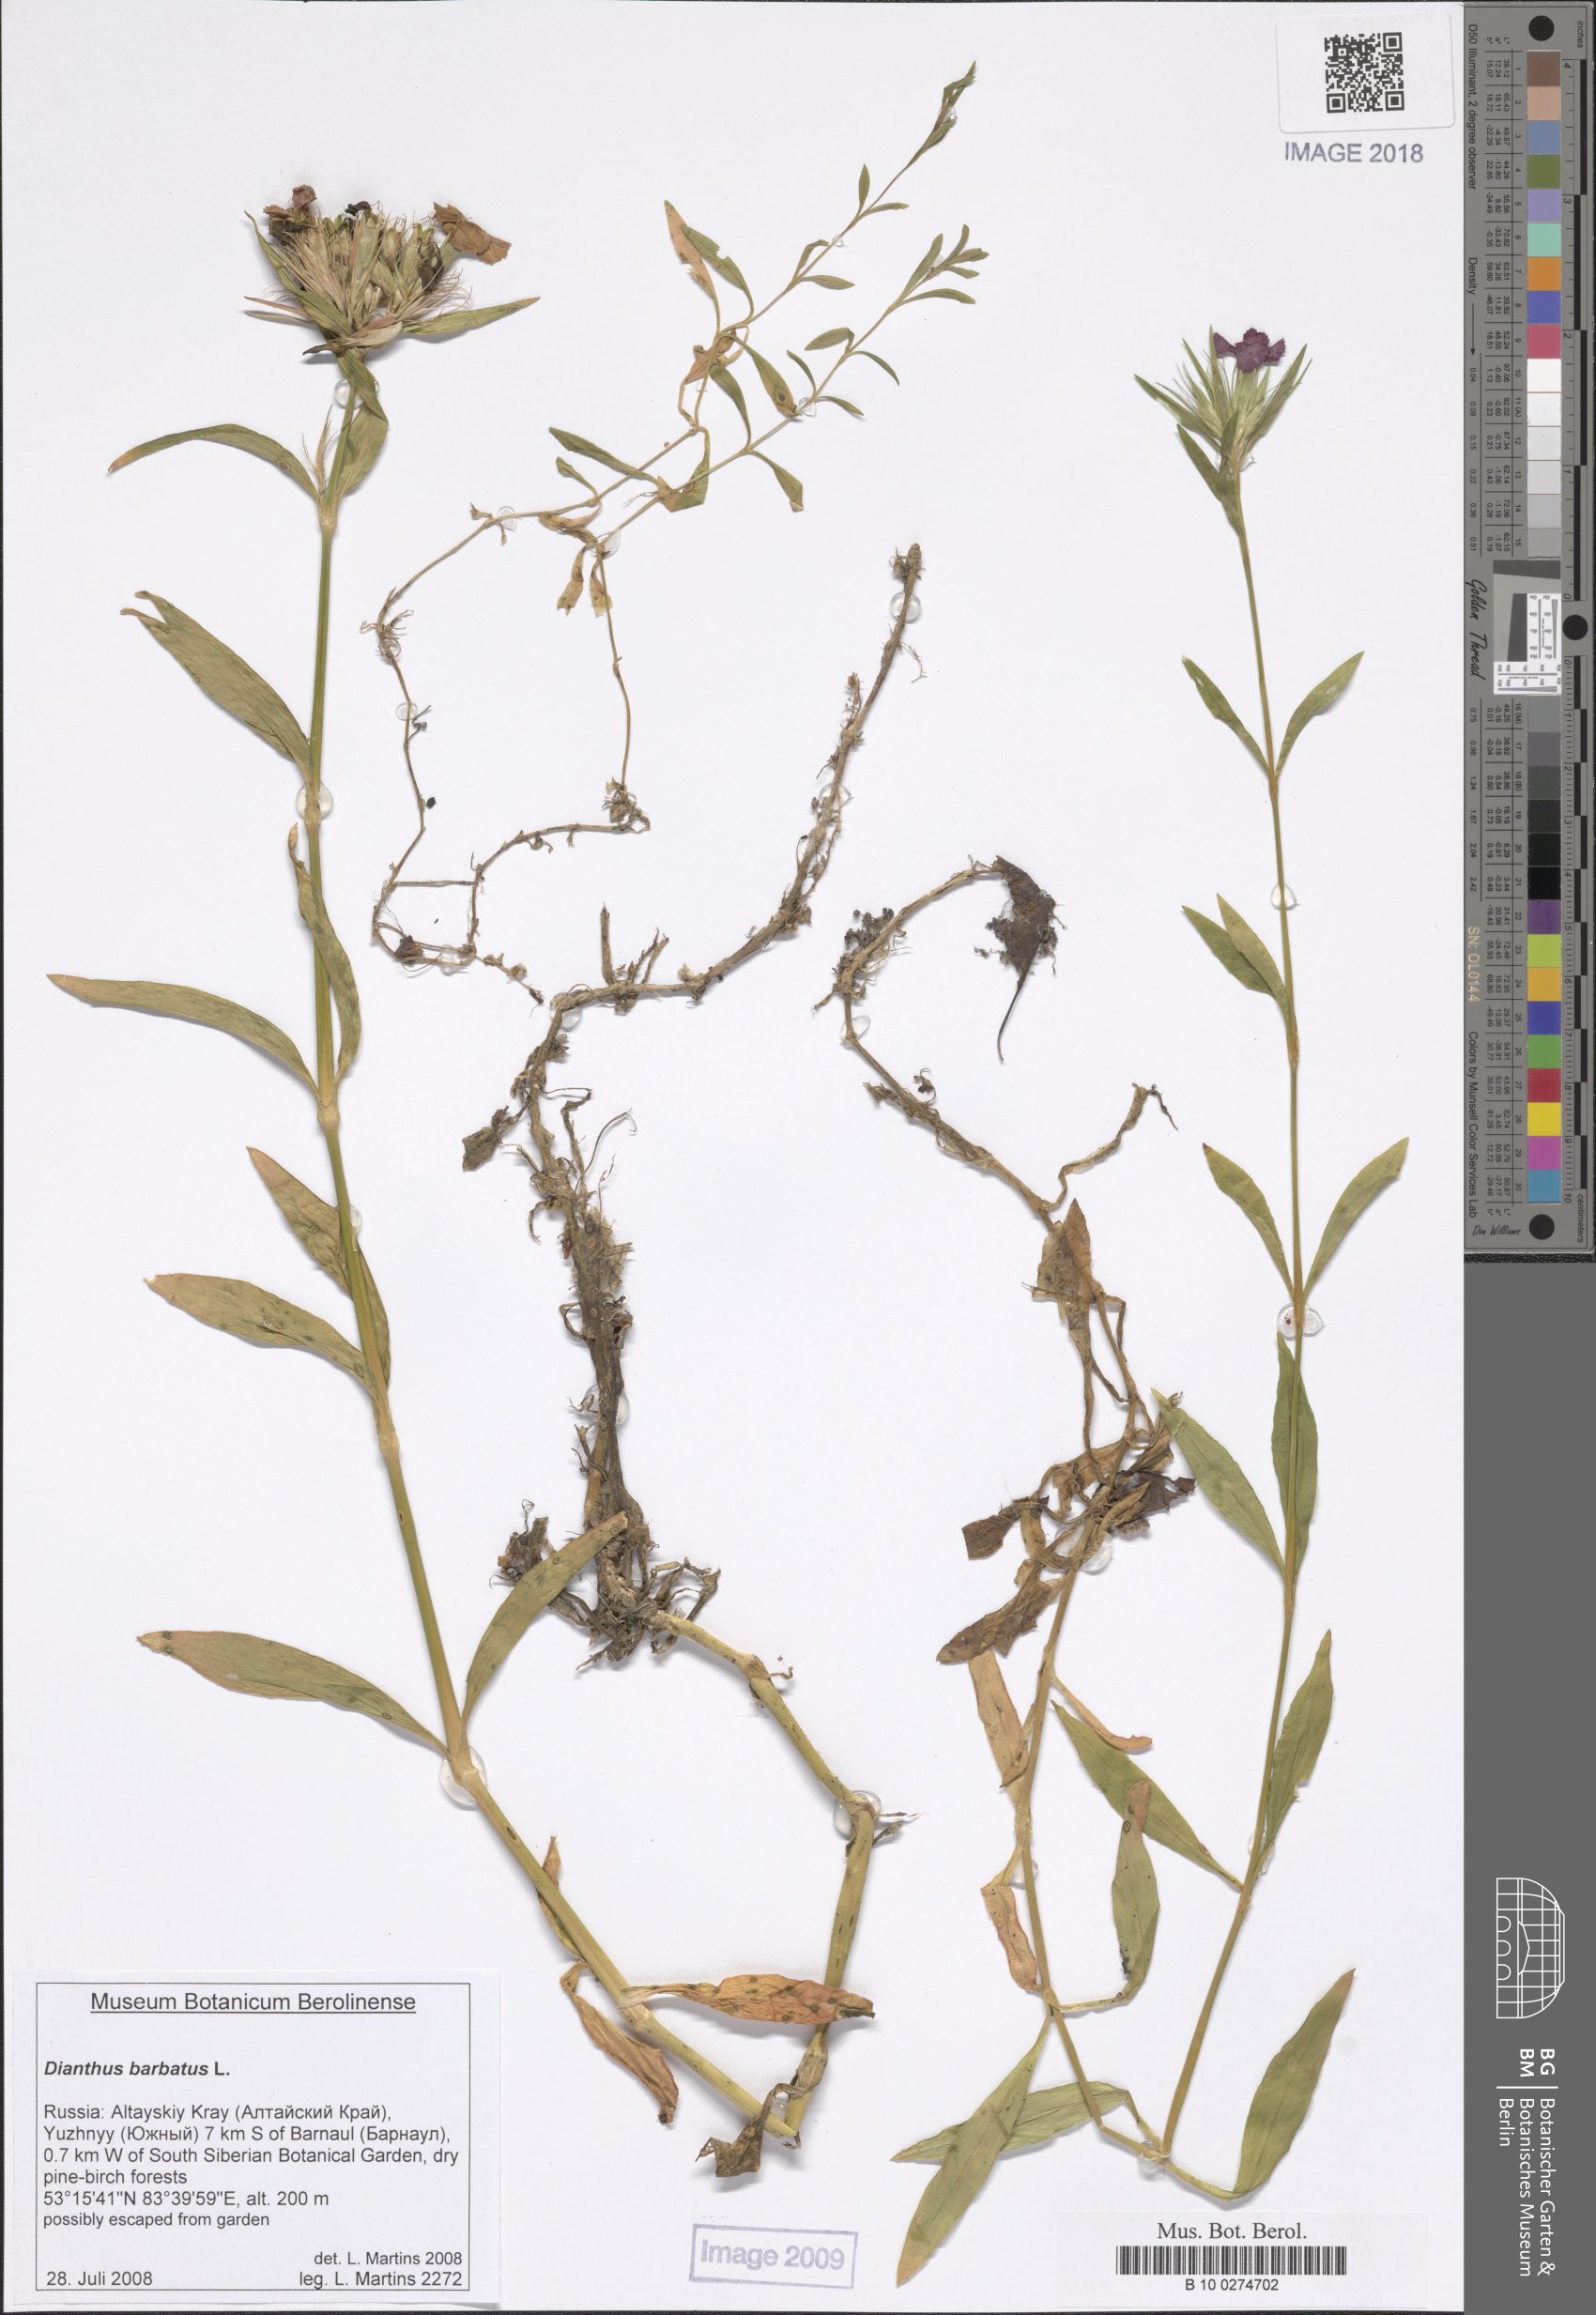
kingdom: Plantae
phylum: Tracheophyta
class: Magnoliopsida
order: Caryophyllales
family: Caryophyllaceae
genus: Dianthus
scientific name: Dianthus barbatus
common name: Sweet-william
